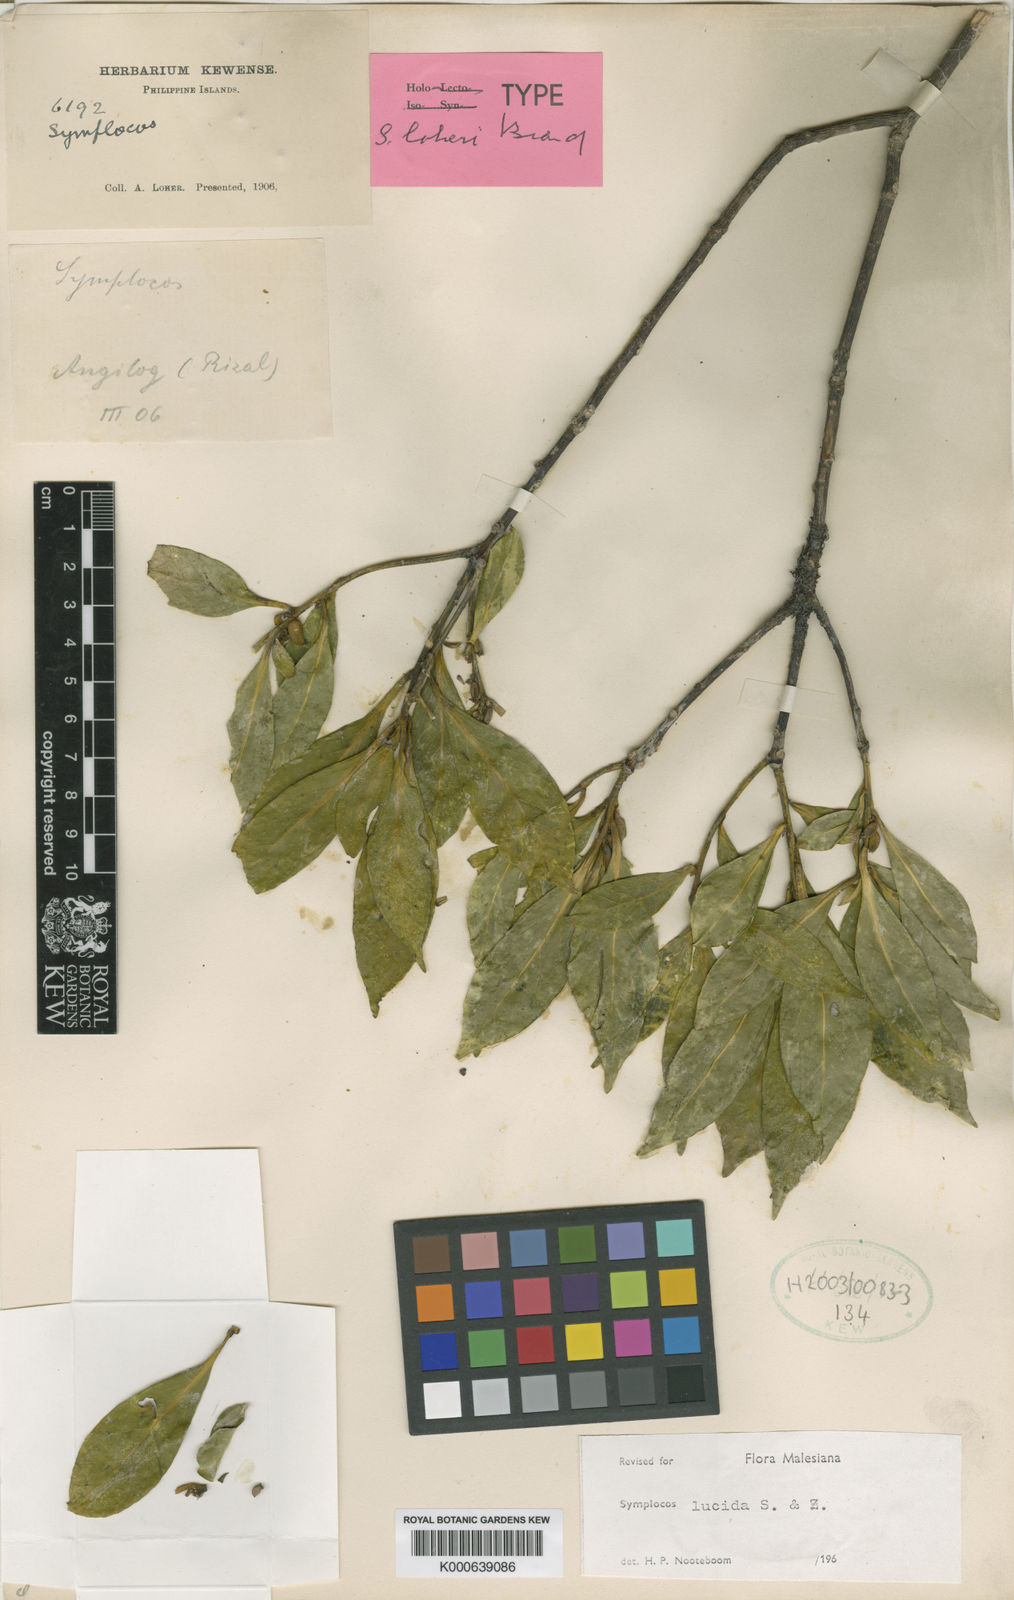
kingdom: Plantae
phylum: Tracheophyta
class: Magnoliopsida
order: Ericales
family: Symplocaceae
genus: Symplocos
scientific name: Symplocos
